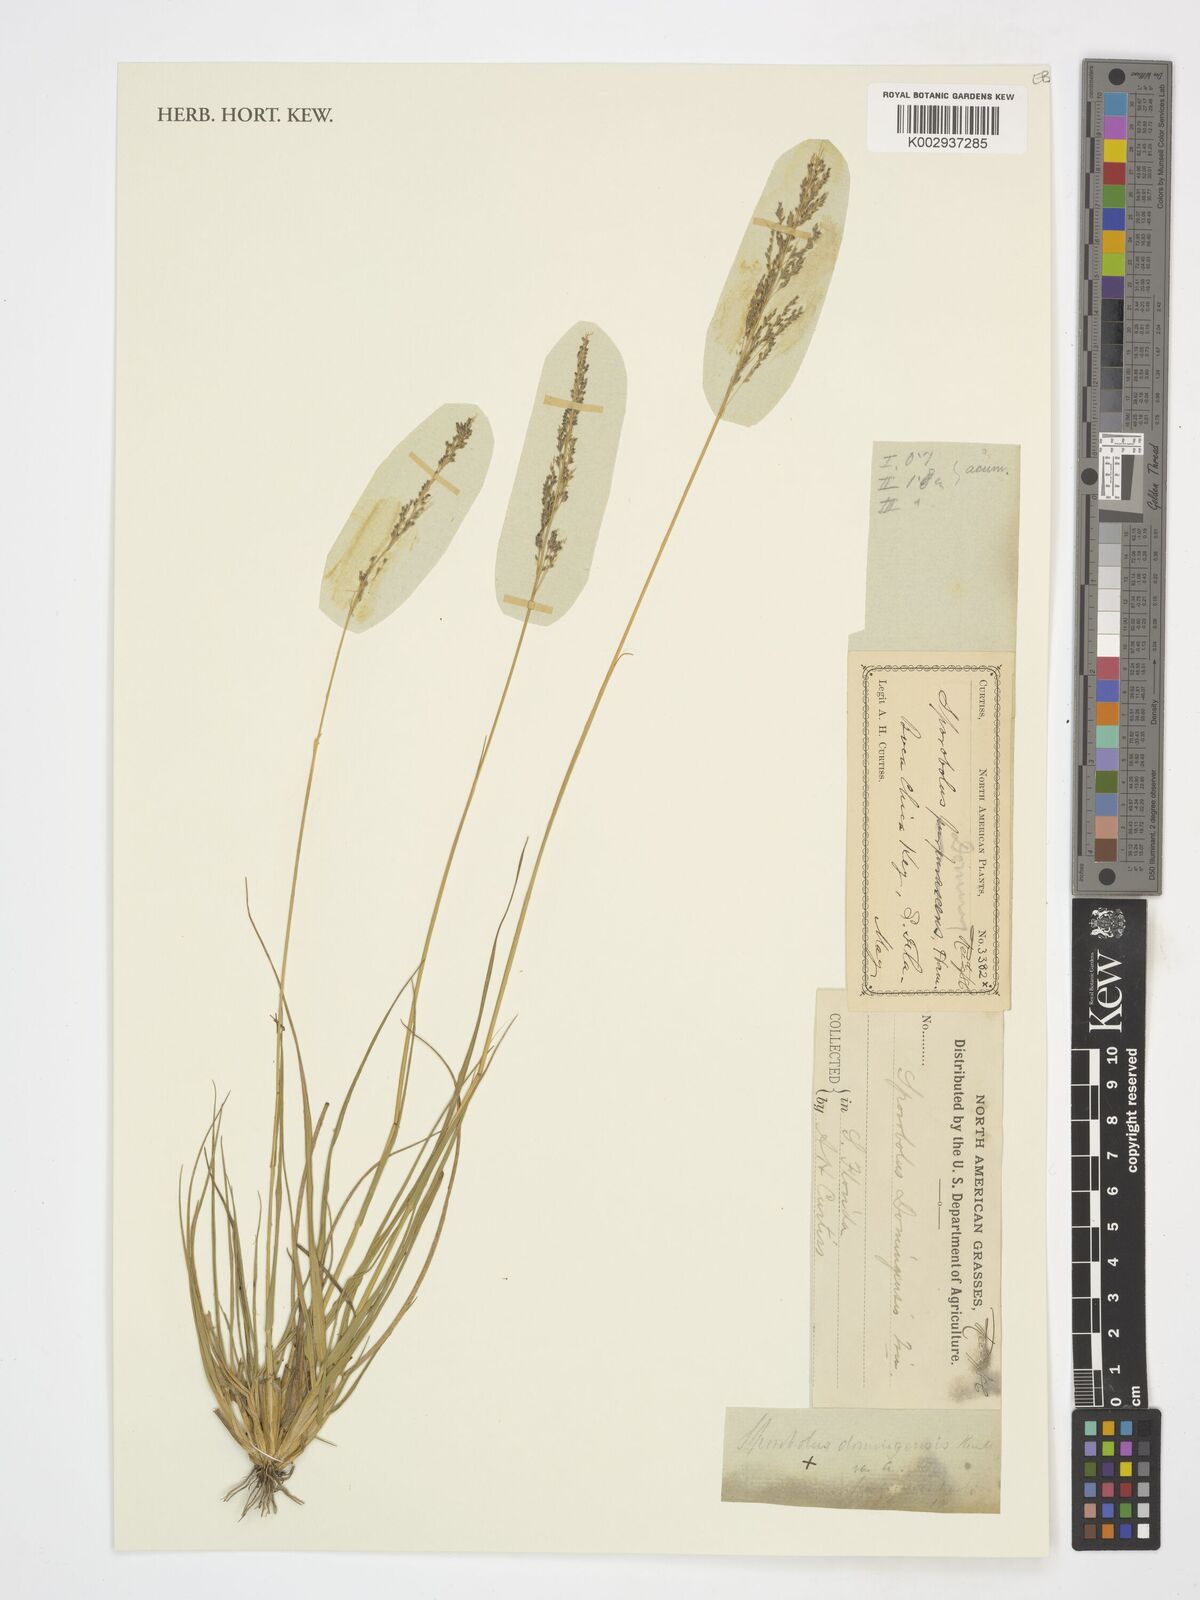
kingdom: Plantae
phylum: Tracheophyta
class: Liliopsida
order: Poales
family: Poaceae
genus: Sporobolus
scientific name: Sporobolus domingensis
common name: Coral dropseed
